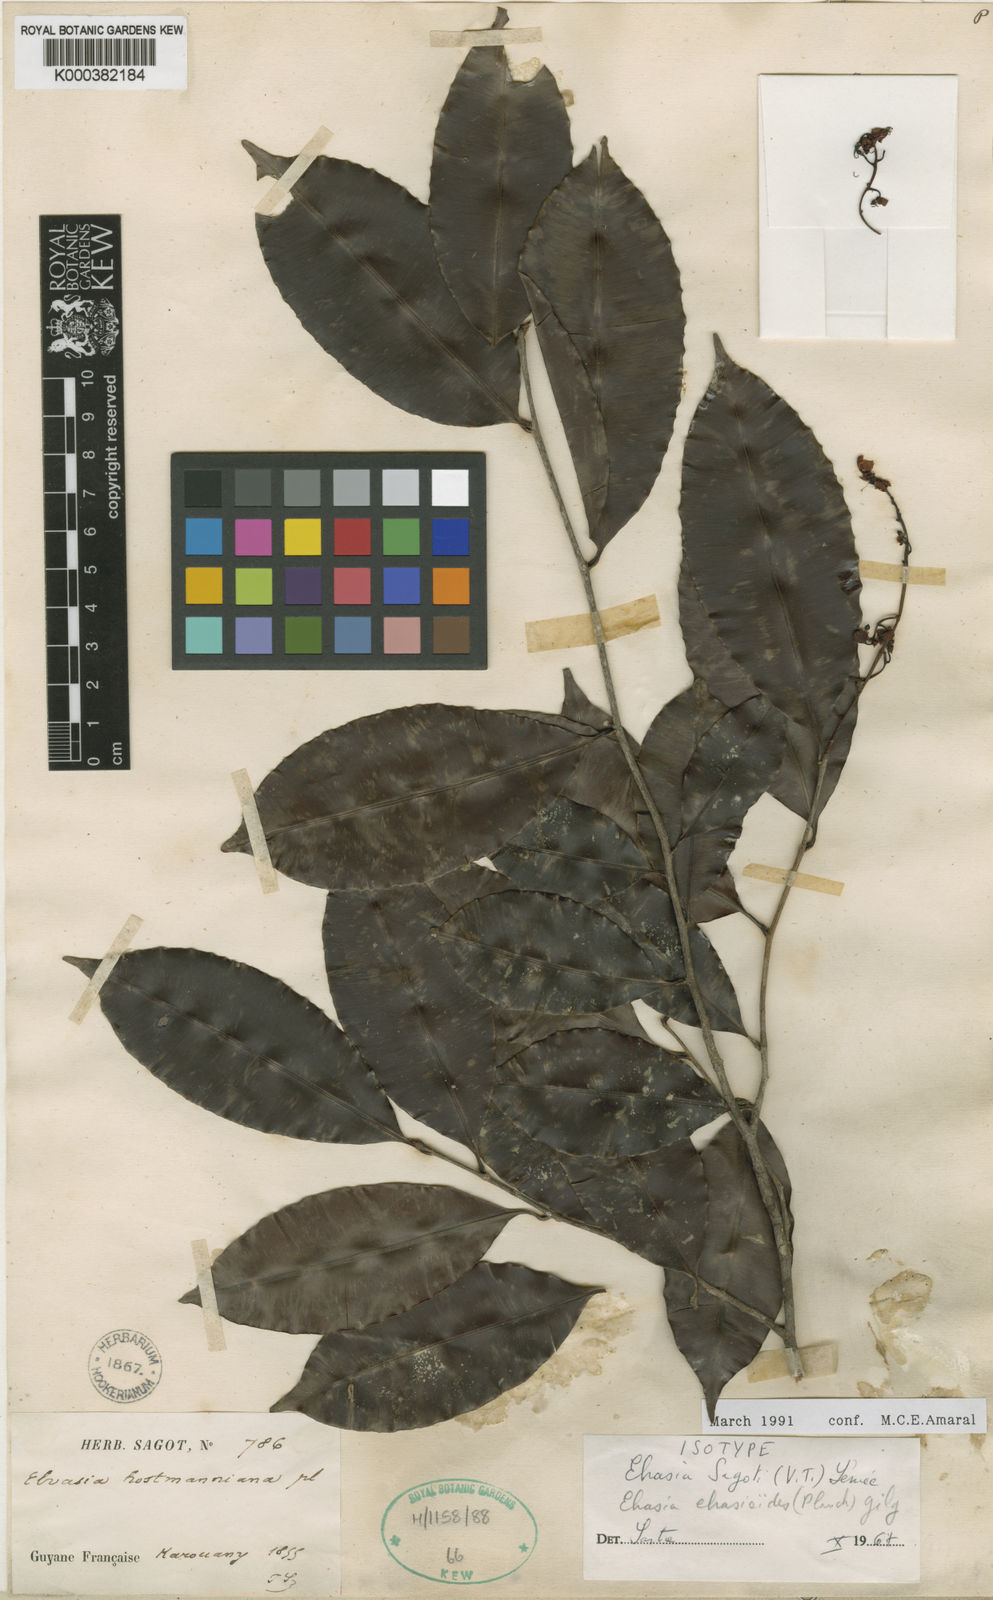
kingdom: Plantae
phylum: Tracheophyta
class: Magnoliopsida
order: Malpighiales
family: Ochnaceae
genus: Elvasia
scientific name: Elvasia elvasioides
